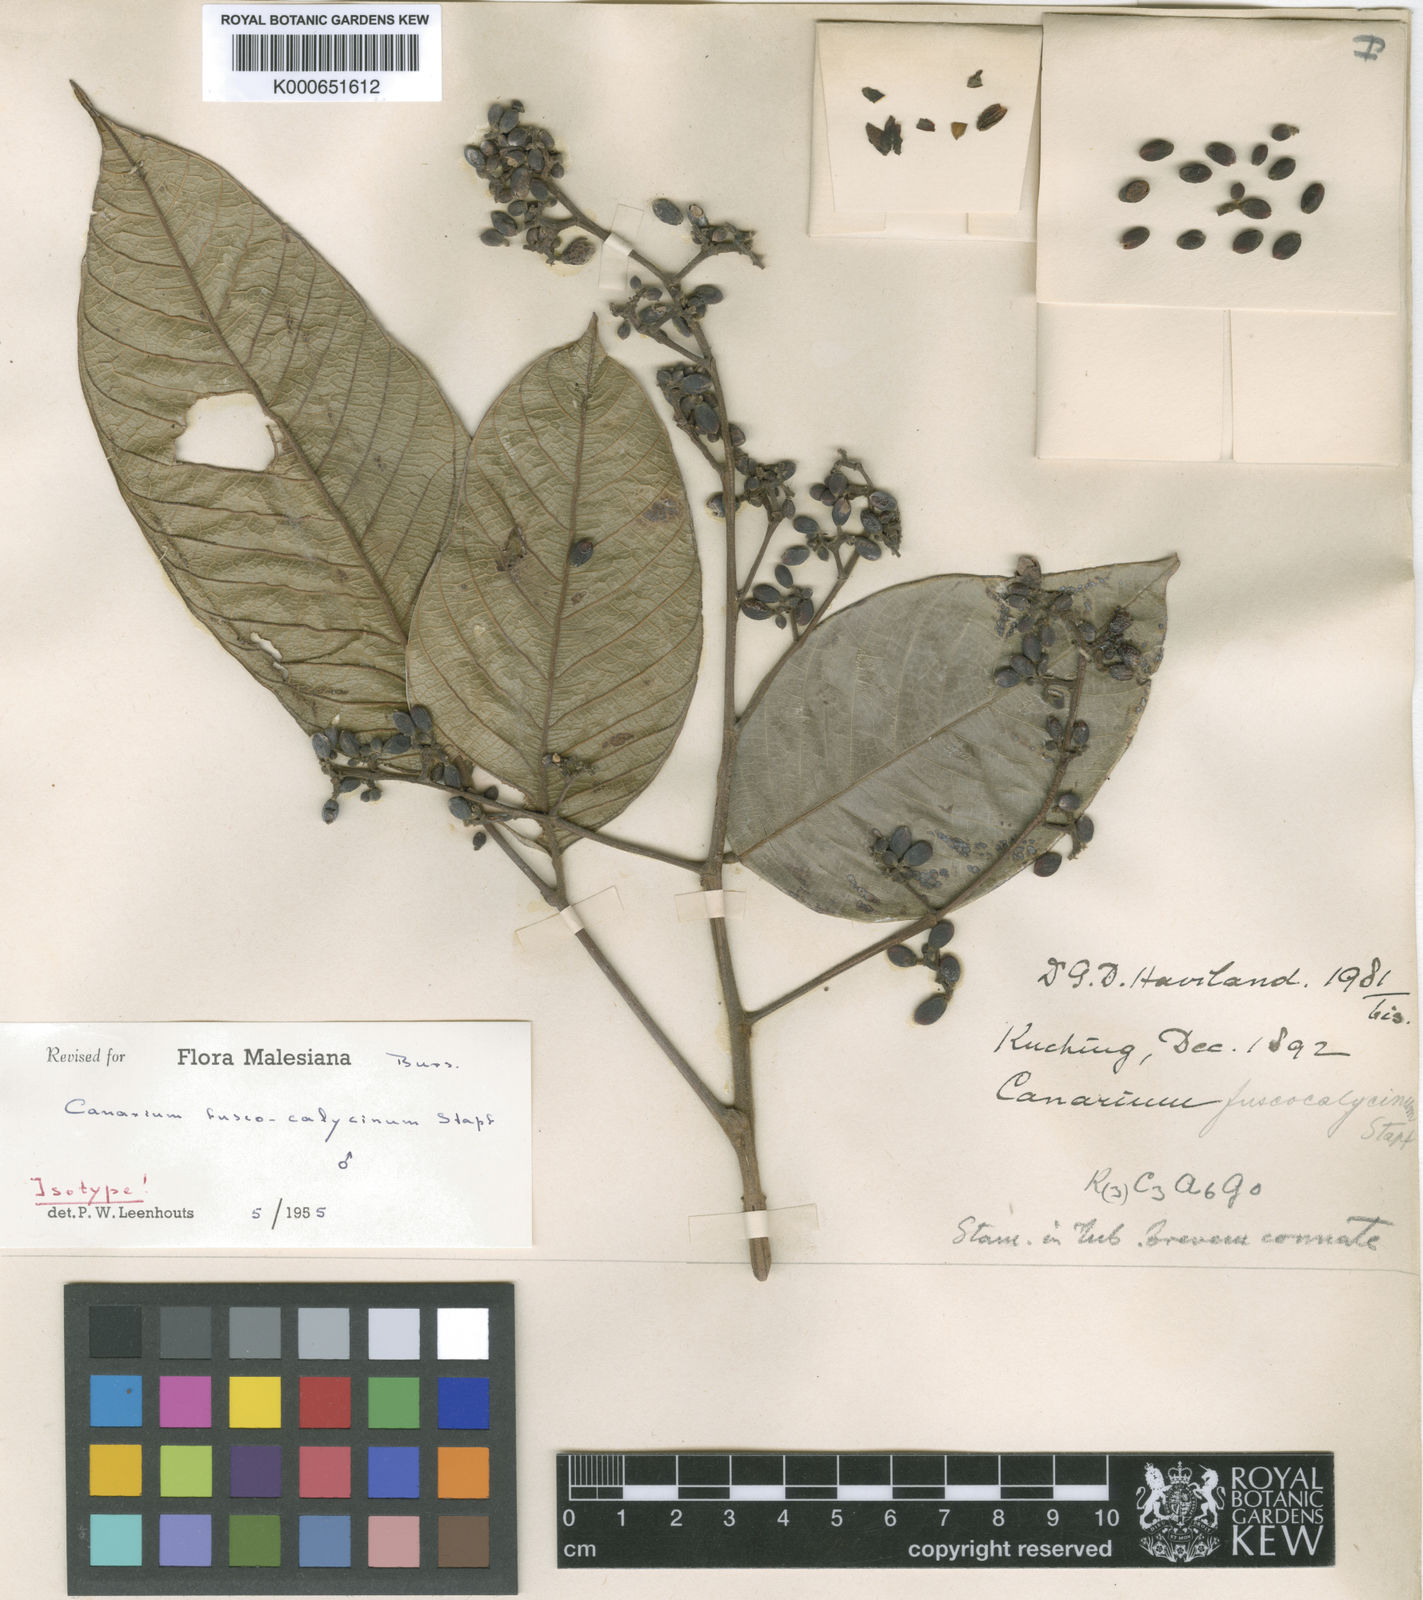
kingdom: Plantae
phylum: Tracheophyta
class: Magnoliopsida
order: Sapindales
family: Burseraceae
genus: Canarium
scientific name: Canarium fuscocalycinum
